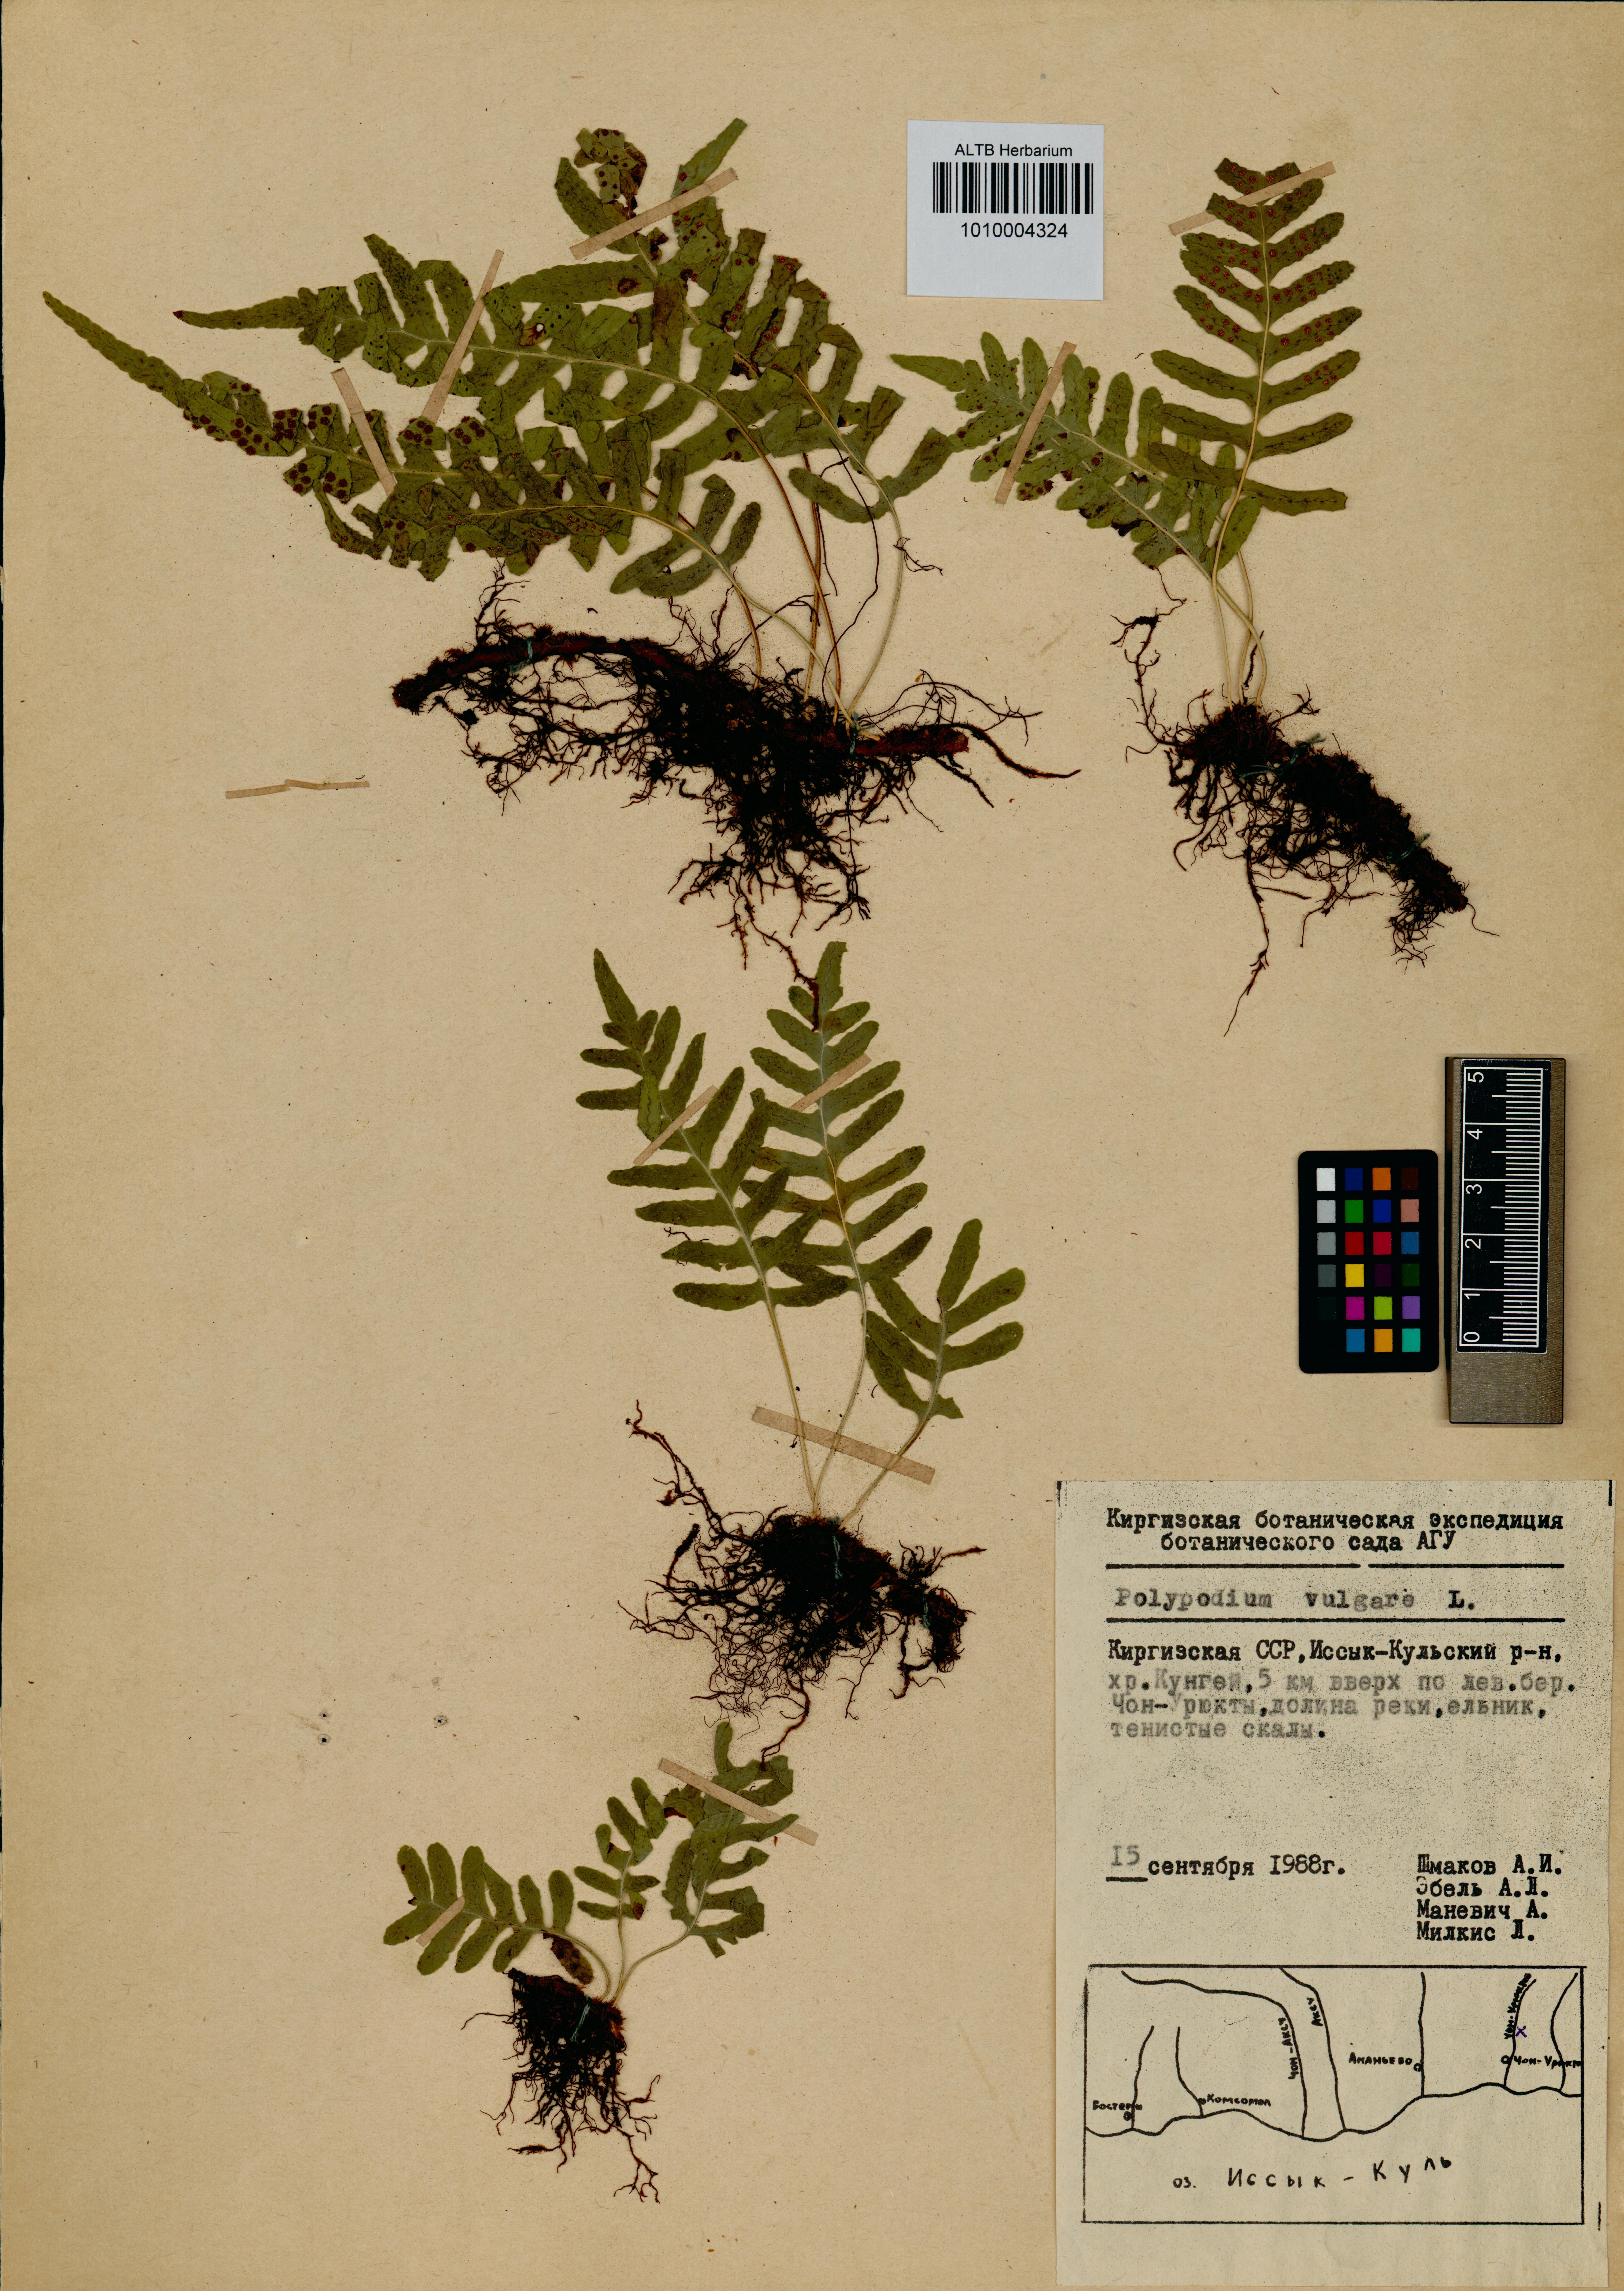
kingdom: Plantae
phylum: Tracheophyta
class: Polypodiopsida
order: Polypodiales
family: Polypodiaceae
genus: Polypodium
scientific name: Polypodium vulgare
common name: Common polypody
